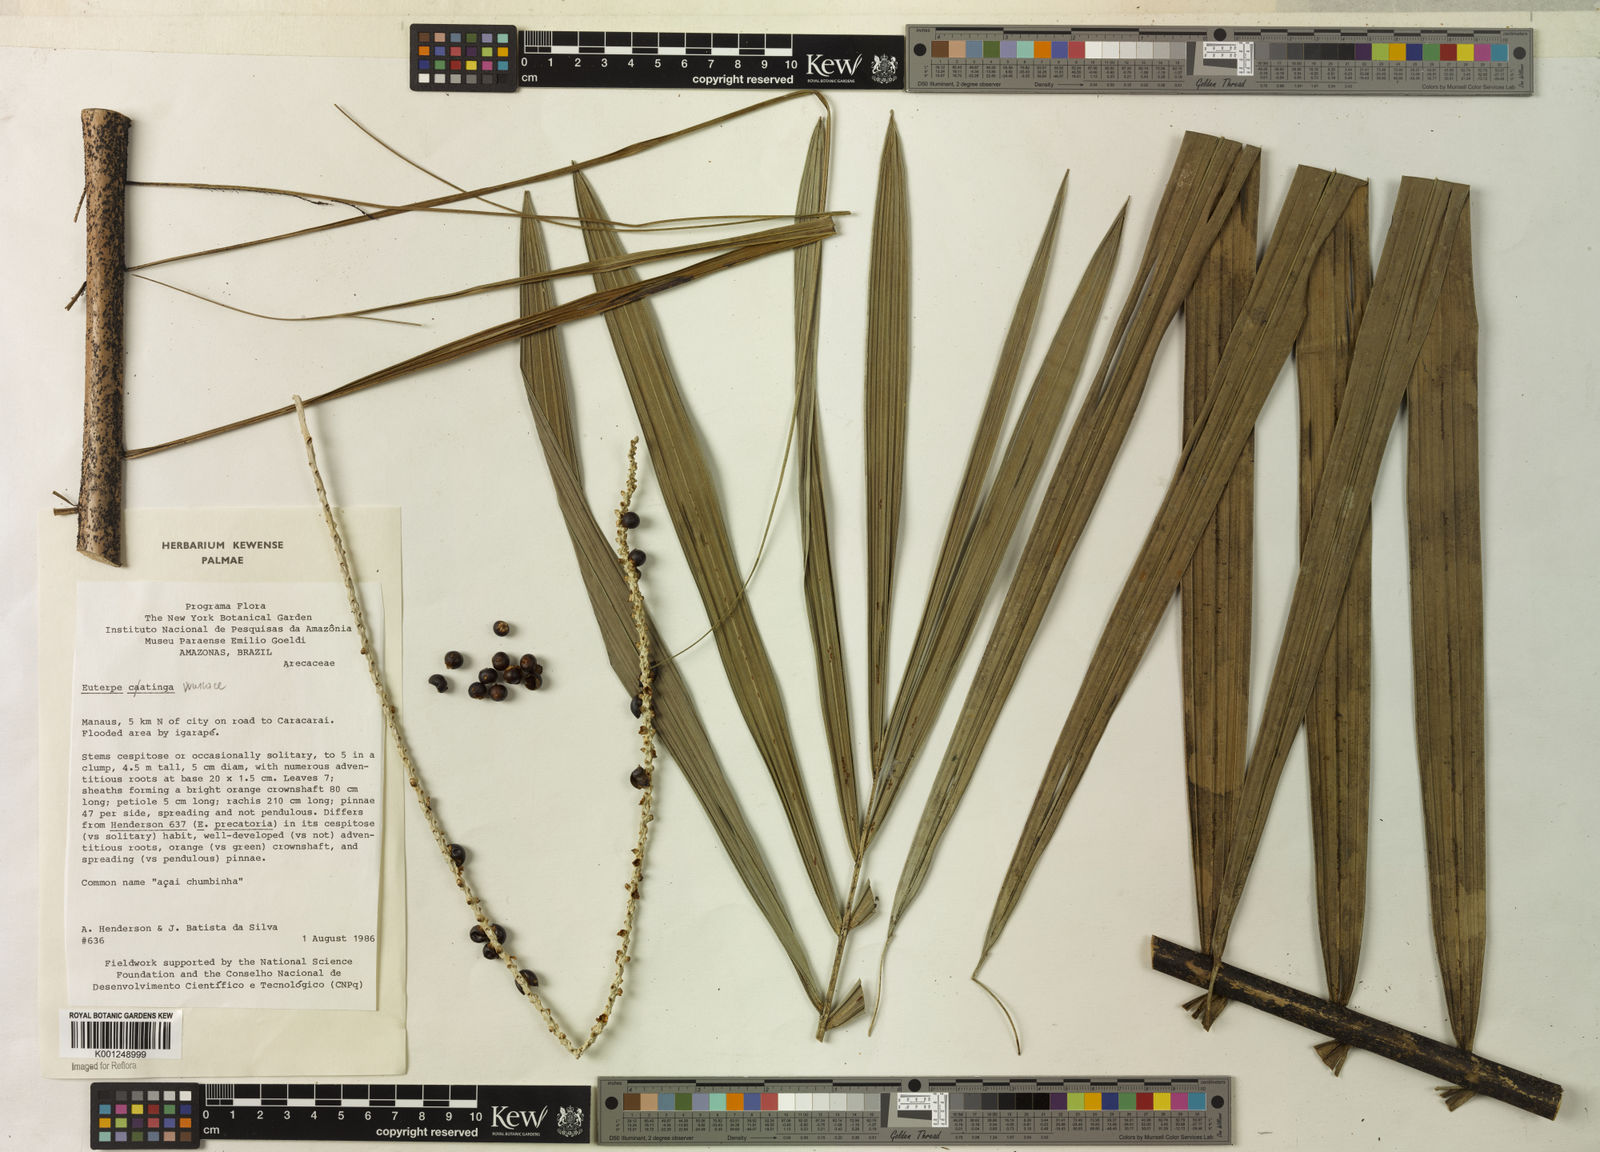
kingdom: Plantae
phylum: Tracheophyta
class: Liliopsida
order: Arecales
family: Arecaceae
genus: Euterpe
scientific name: Euterpe catinga
